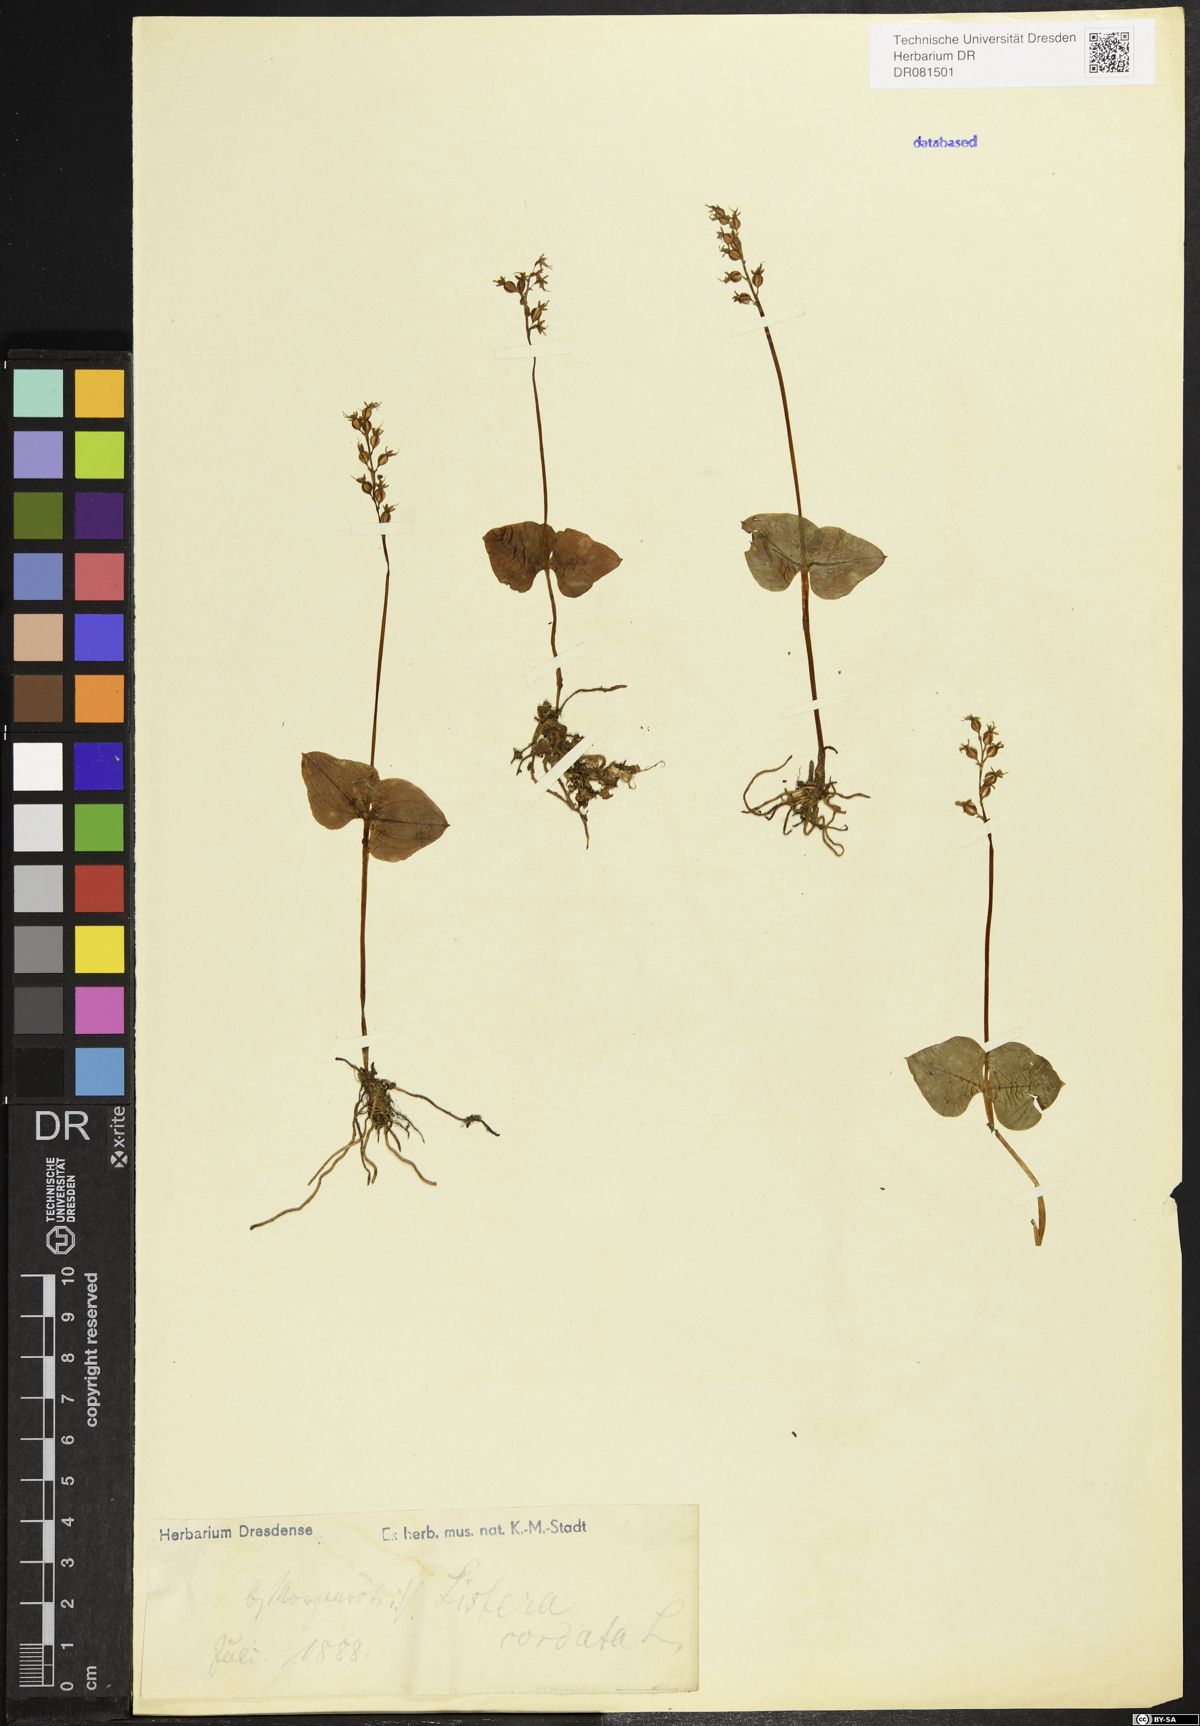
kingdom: Plantae
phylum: Tracheophyta
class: Liliopsida
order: Asparagales
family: Orchidaceae
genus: Neottia
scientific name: Neottia cordata
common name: Lesser twayblade
